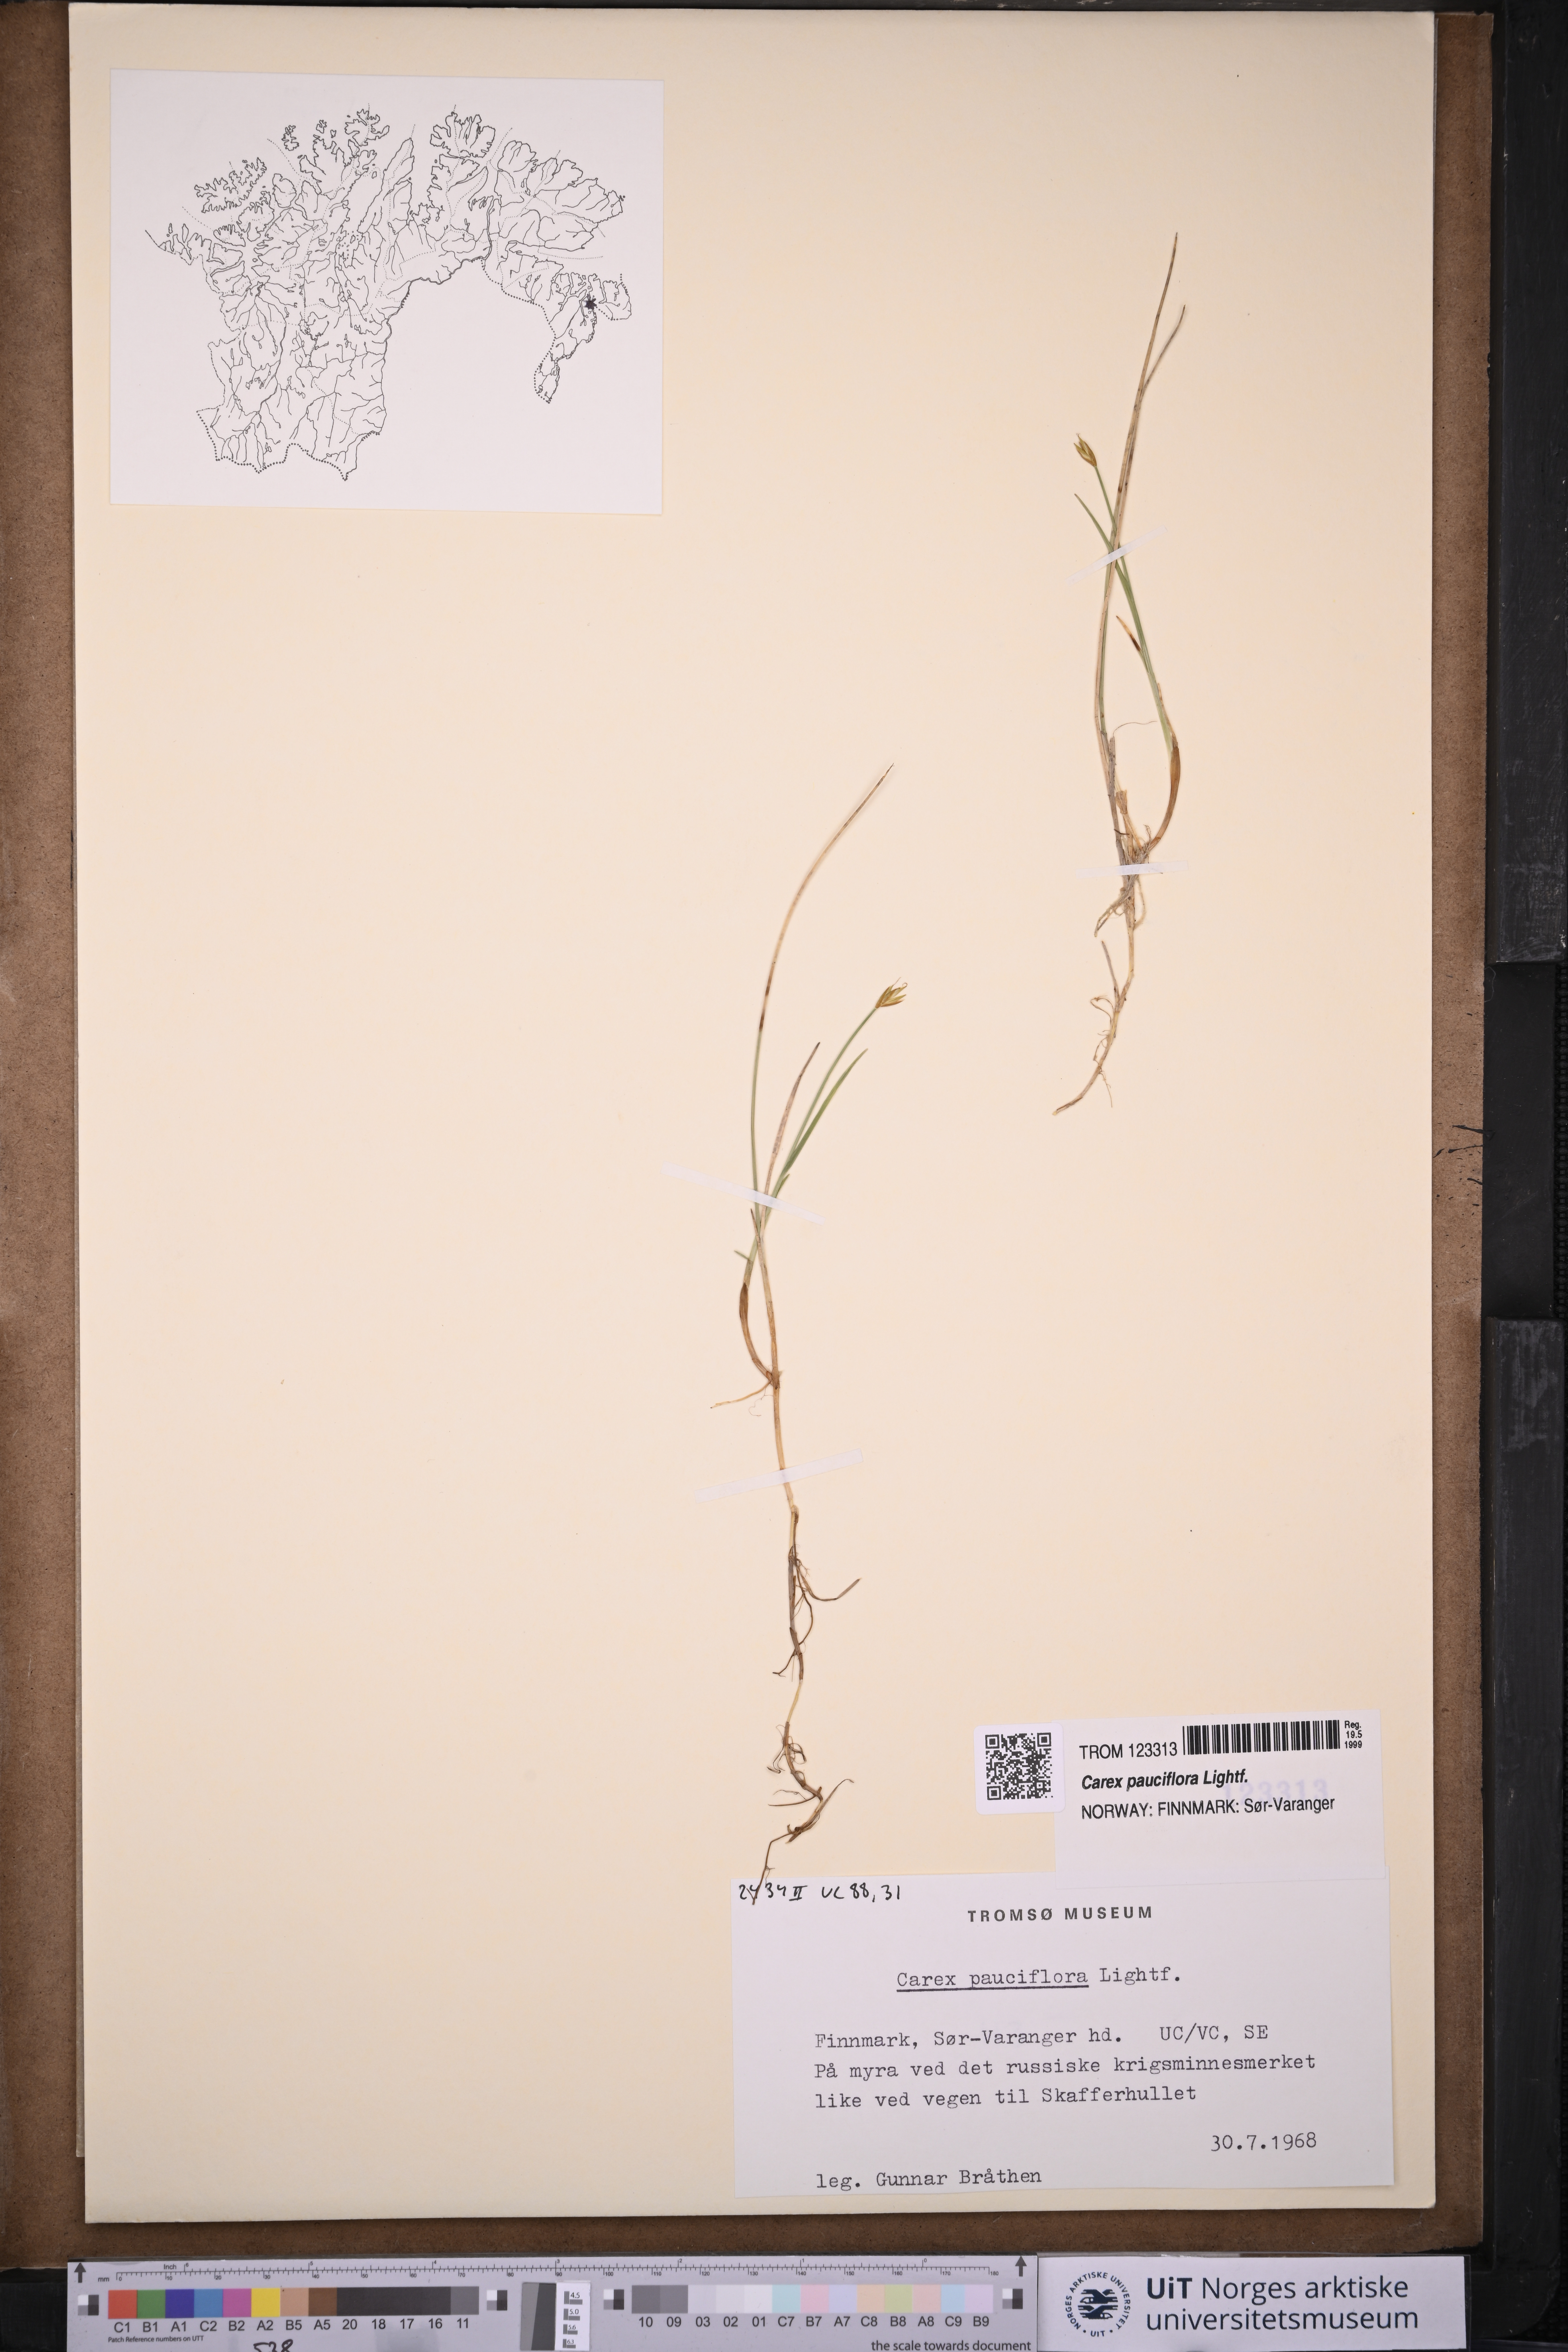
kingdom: Plantae
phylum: Tracheophyta
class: Liliopsida
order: Poales
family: Cyperaceae
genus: Carex
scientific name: Carex pauciflora
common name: Few-flowered sedge
